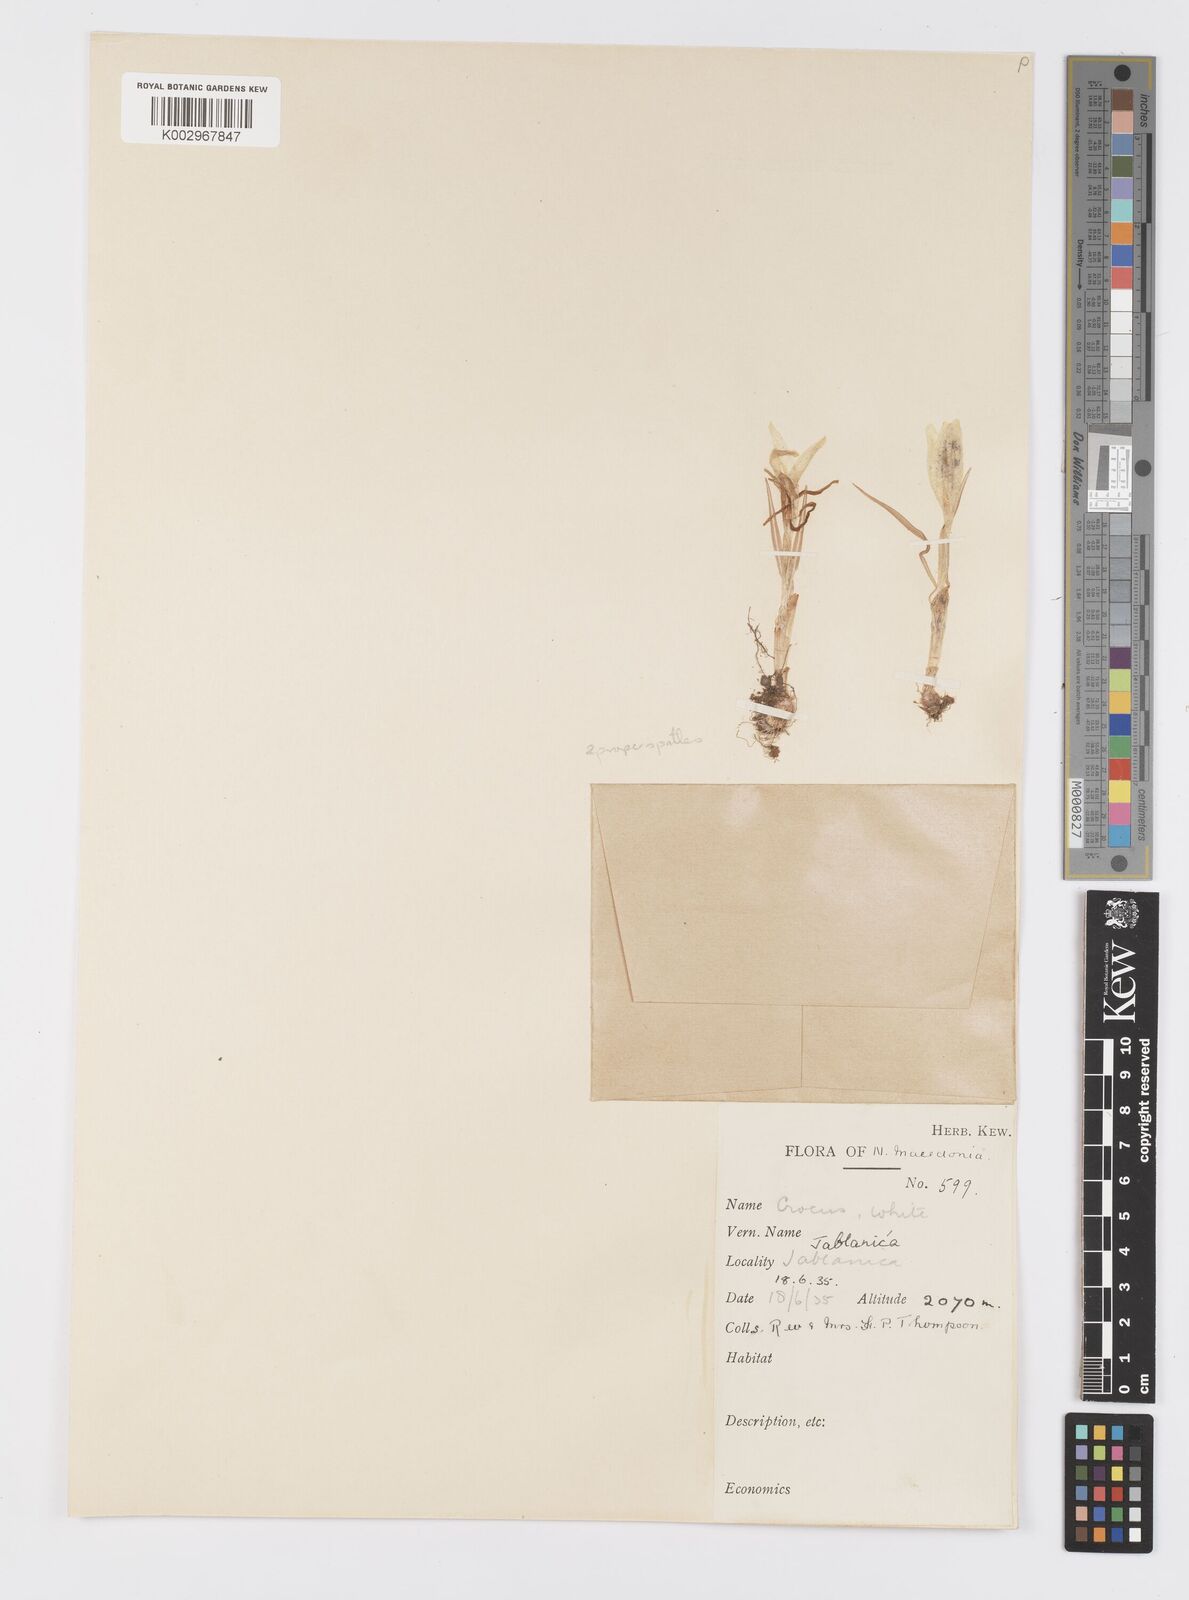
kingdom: Plantae
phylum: Tracheophyta
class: Liliopsida
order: Asparagales
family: Iridaceae
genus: Crocus
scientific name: Crocus cvijicii
